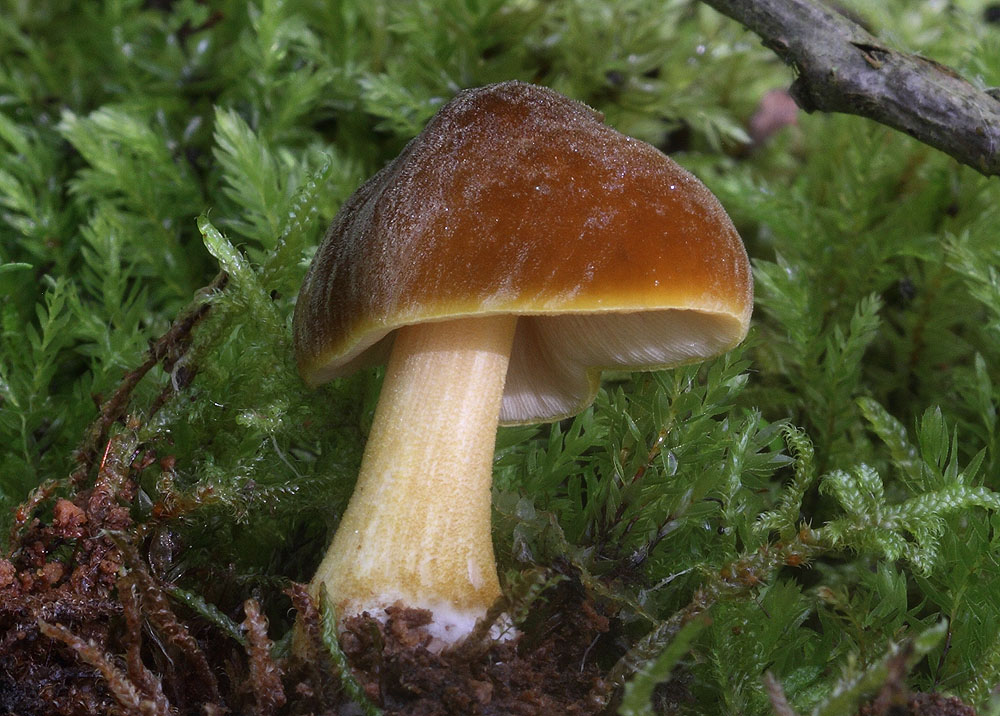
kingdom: Fungi
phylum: Basidiomycota
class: Agaricomycetes
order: Agaricales
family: Pluteaceae
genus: Pluteus
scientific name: Pluteus leoninus
